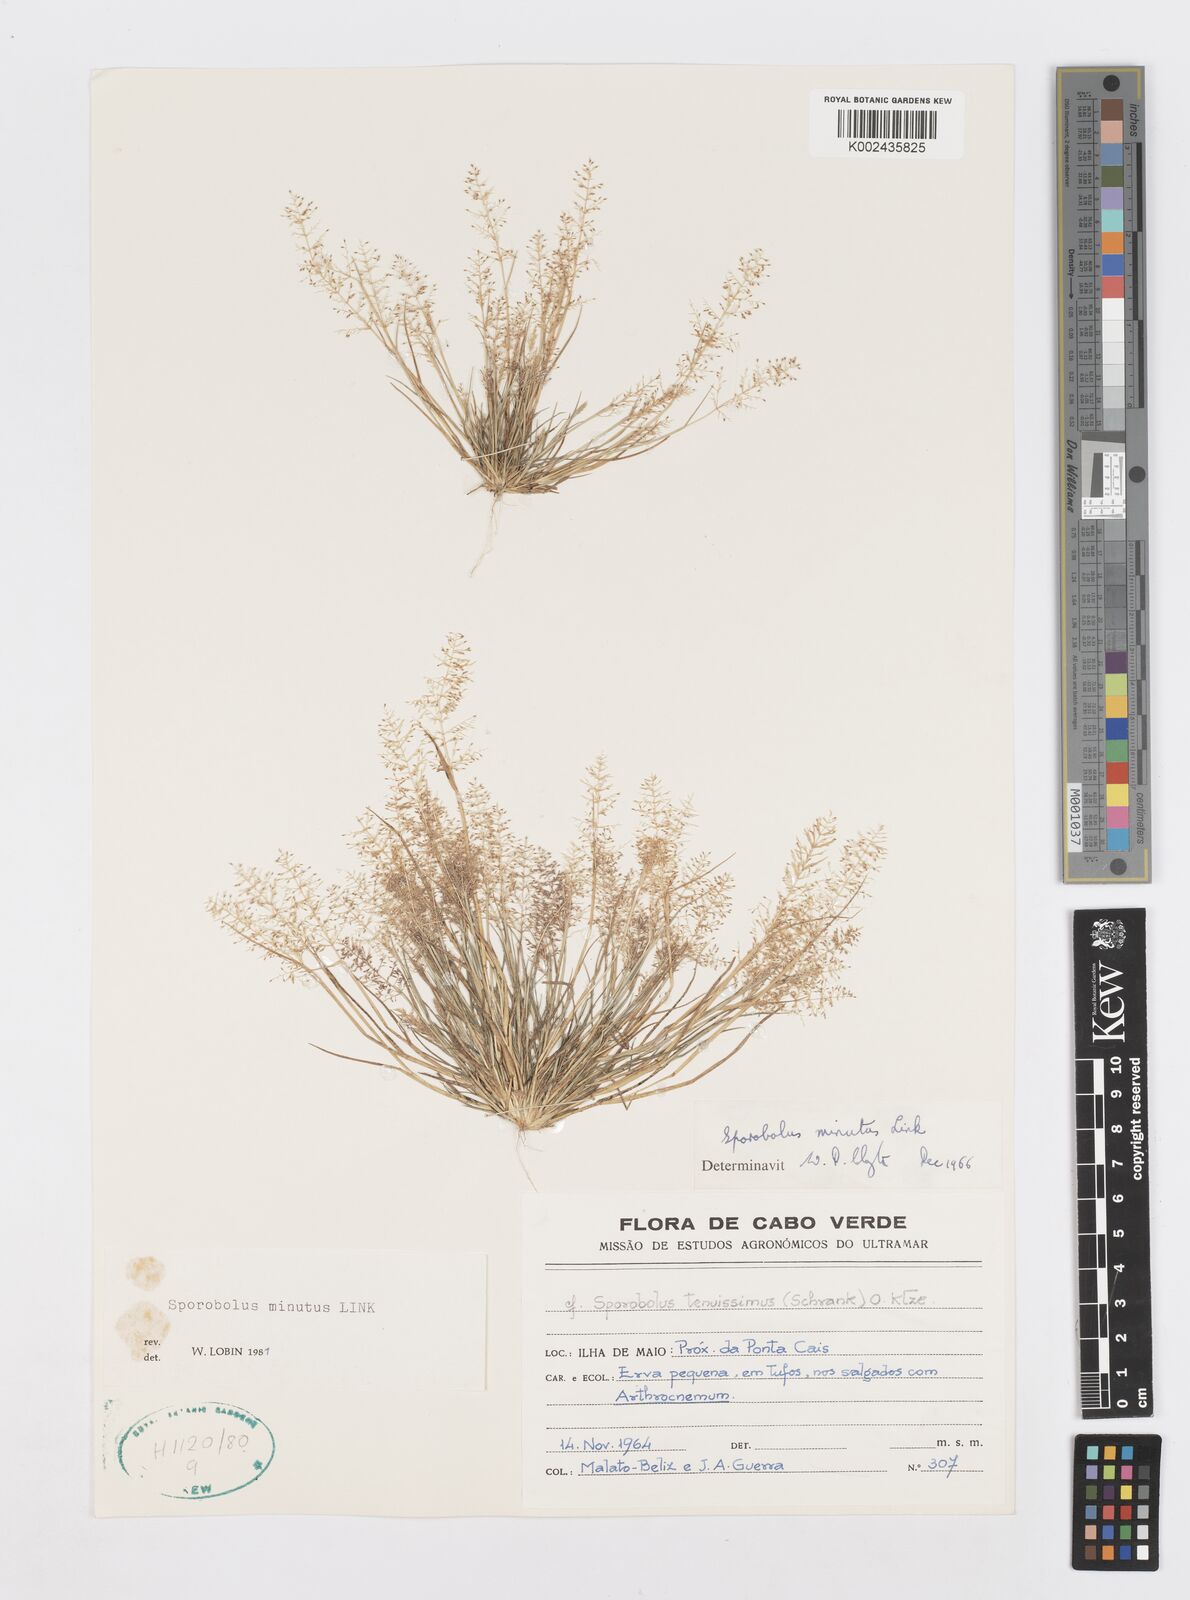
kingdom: Plantae
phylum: Tracheophyta
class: Liliopsida
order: Poales
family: Poaceae
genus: Sporobolus
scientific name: Sporobolus minutus
